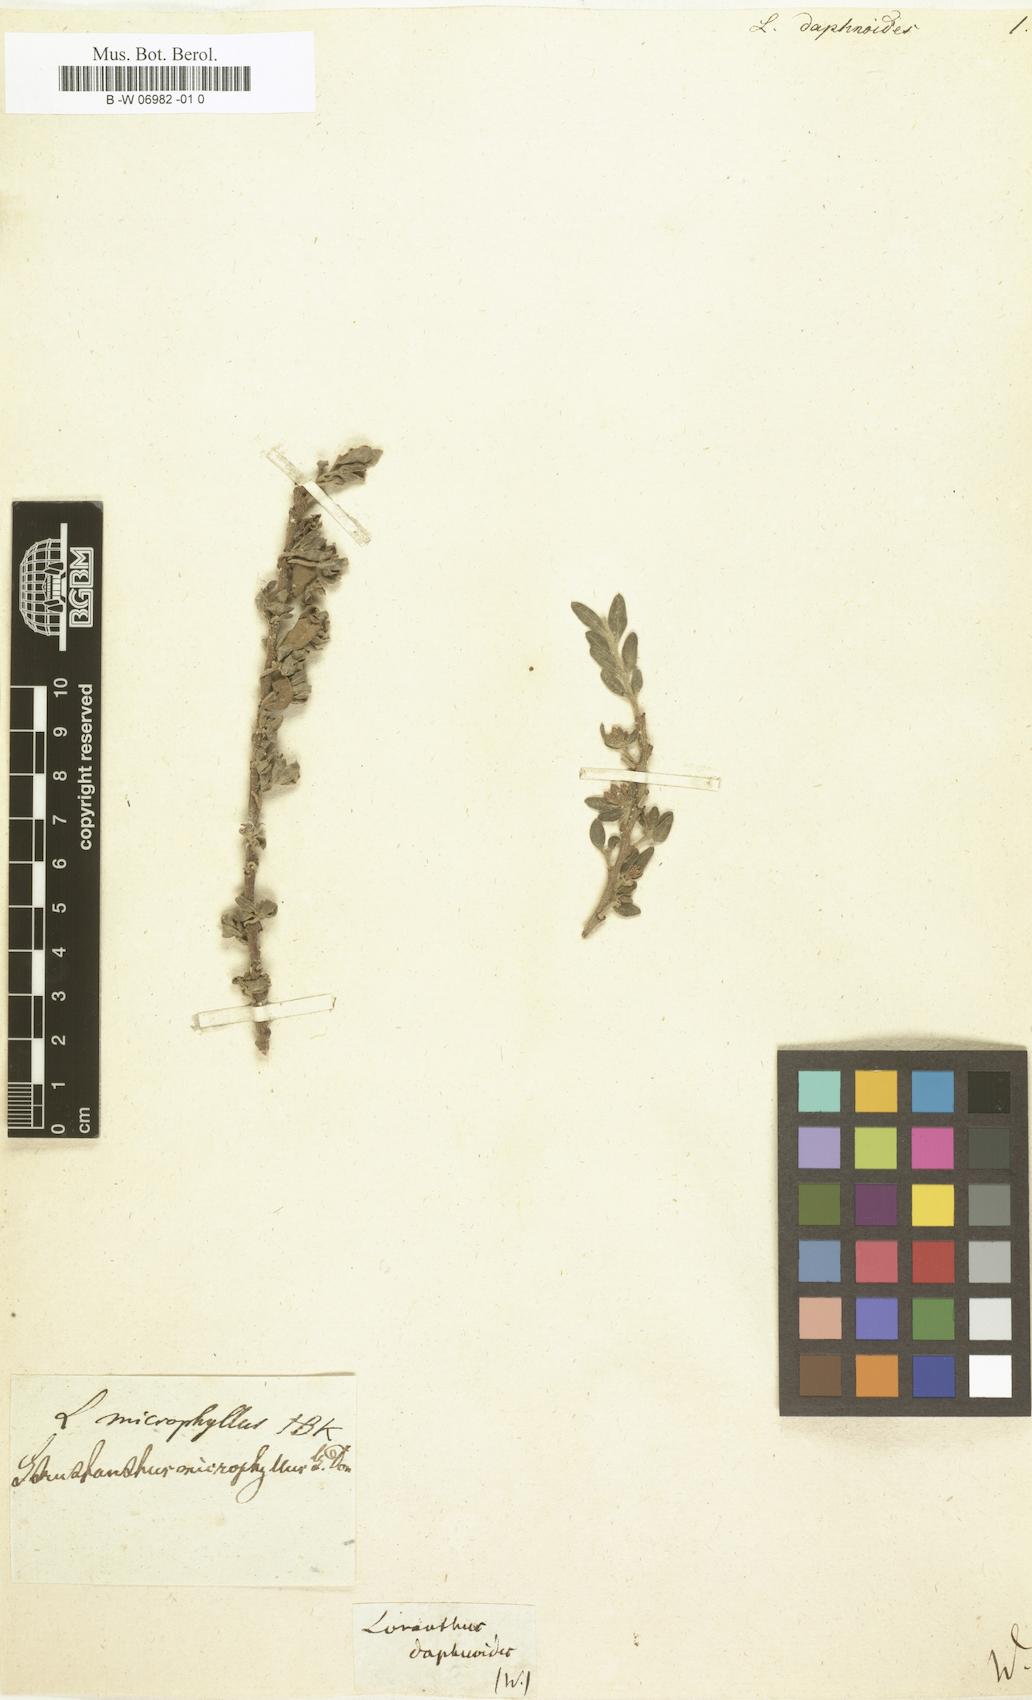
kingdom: Plantae
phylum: Tracheophyta
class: Magnoliopsida
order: Santalales
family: Loranthaceae
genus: Cladocolea
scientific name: Cladocolea microphylla
